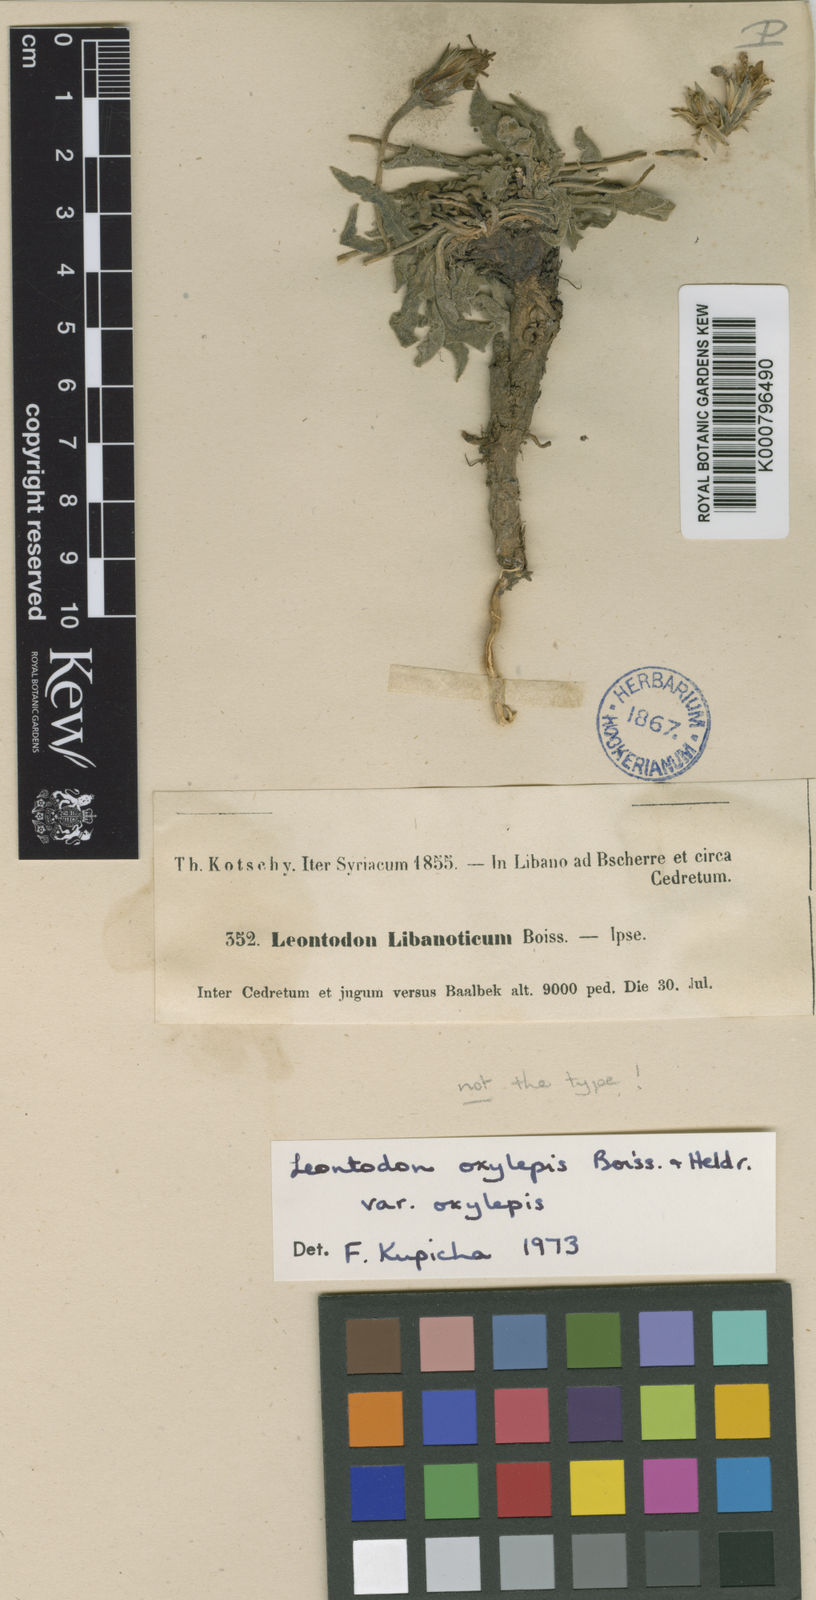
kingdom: Plantae
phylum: Tracheophyta
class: Magnoliopsida
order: Asterales
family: Asteraceae
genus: Leontodon
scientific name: Leontodon libanoticus
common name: Lebanon hawkbit
